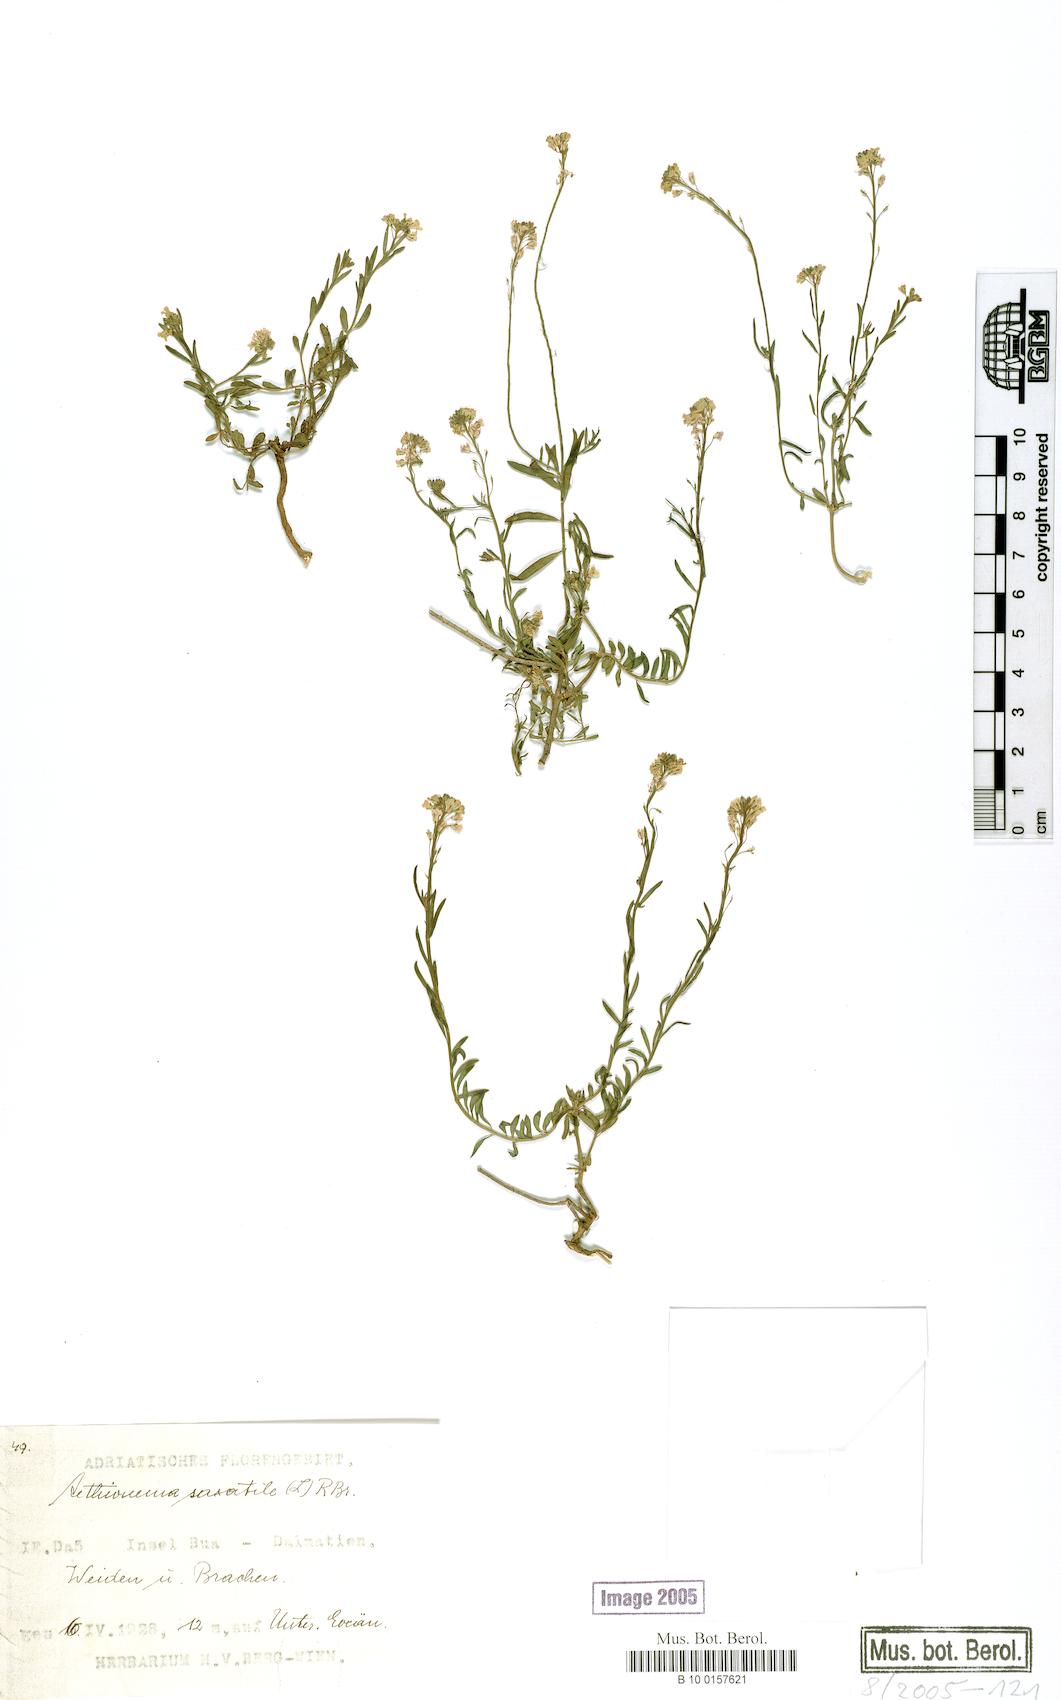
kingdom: Plantae
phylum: Tracheophyta
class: Magnoliopsida
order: Brassicales
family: Brassicaceae
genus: Aethionema
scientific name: Aethionema saxatile
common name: Burnt candytuft
